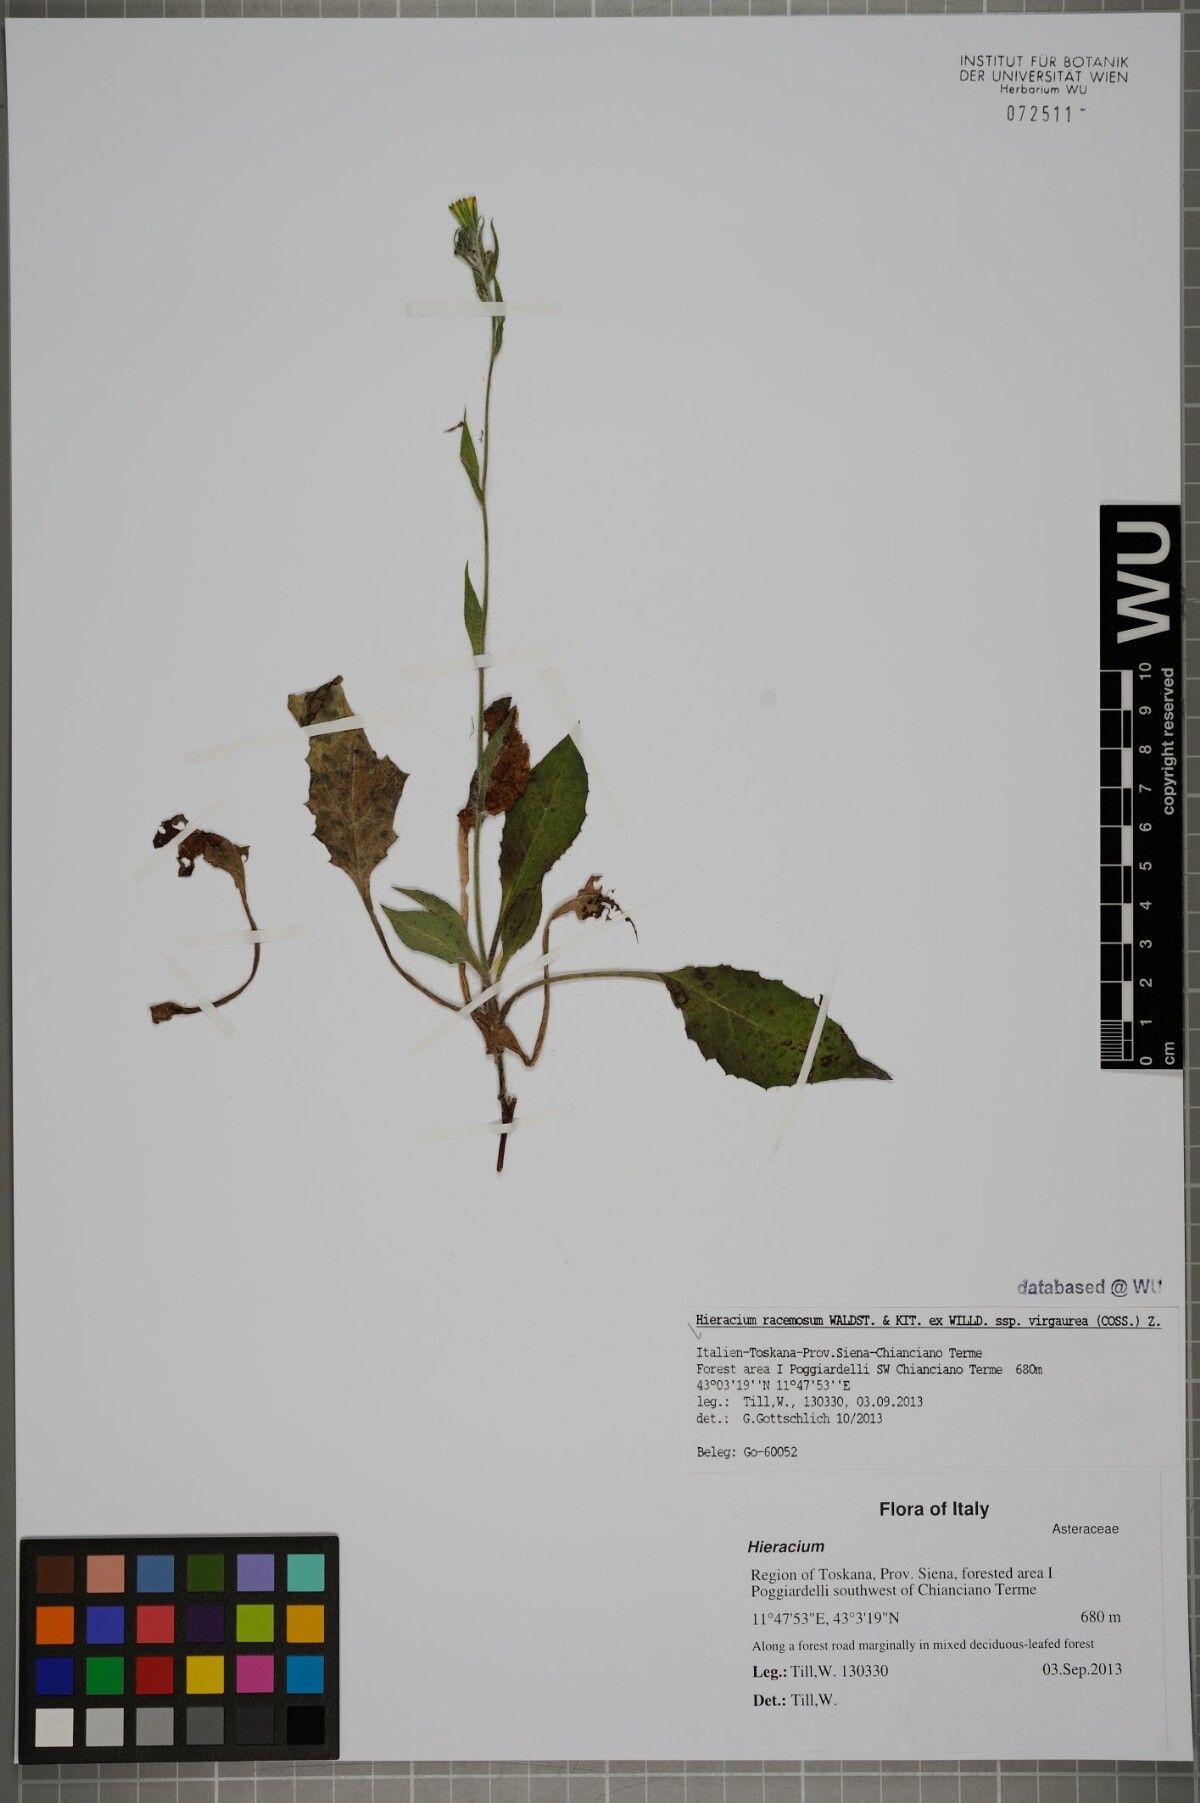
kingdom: Plantae
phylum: Tracheophyta
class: Magnoliopsida
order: Asterales
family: Asteraceae
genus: Hieracium
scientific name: Hieracium racemosum
